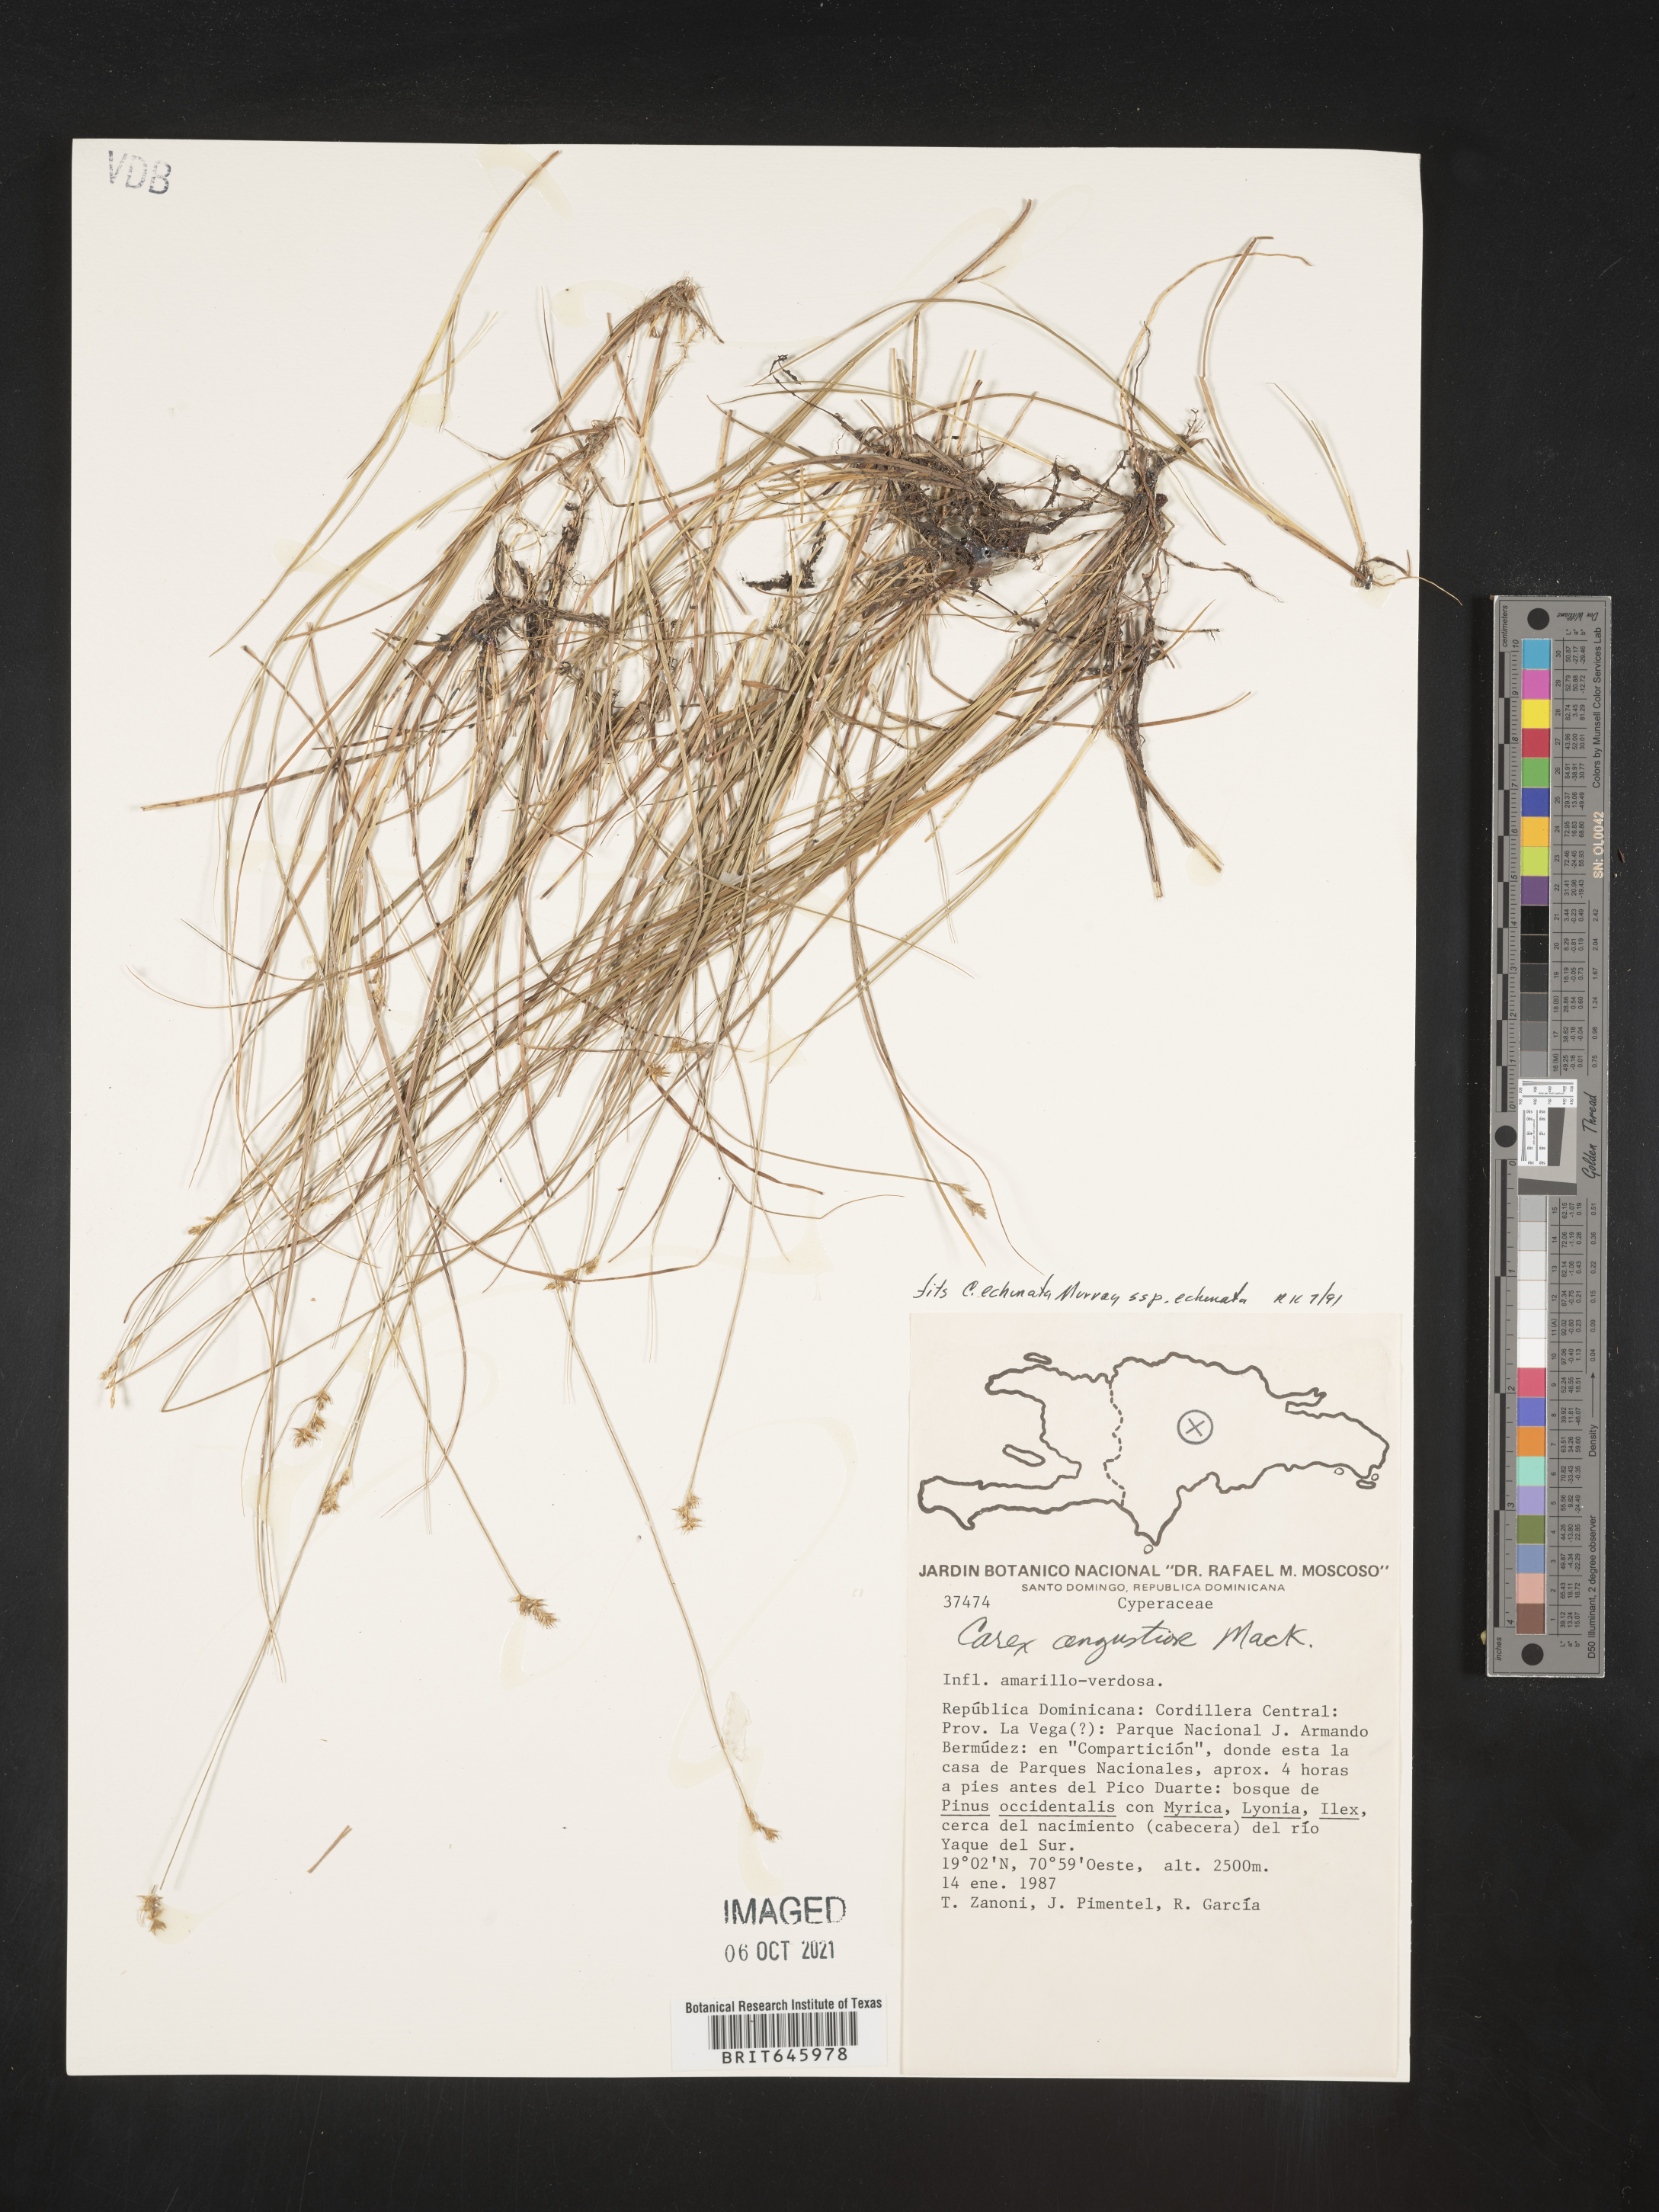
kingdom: Plantae
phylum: Tracheophyta
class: Liliopsida
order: Poales
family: Cyperaceae
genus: Carex
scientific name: Carex echinata
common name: Star sedge
